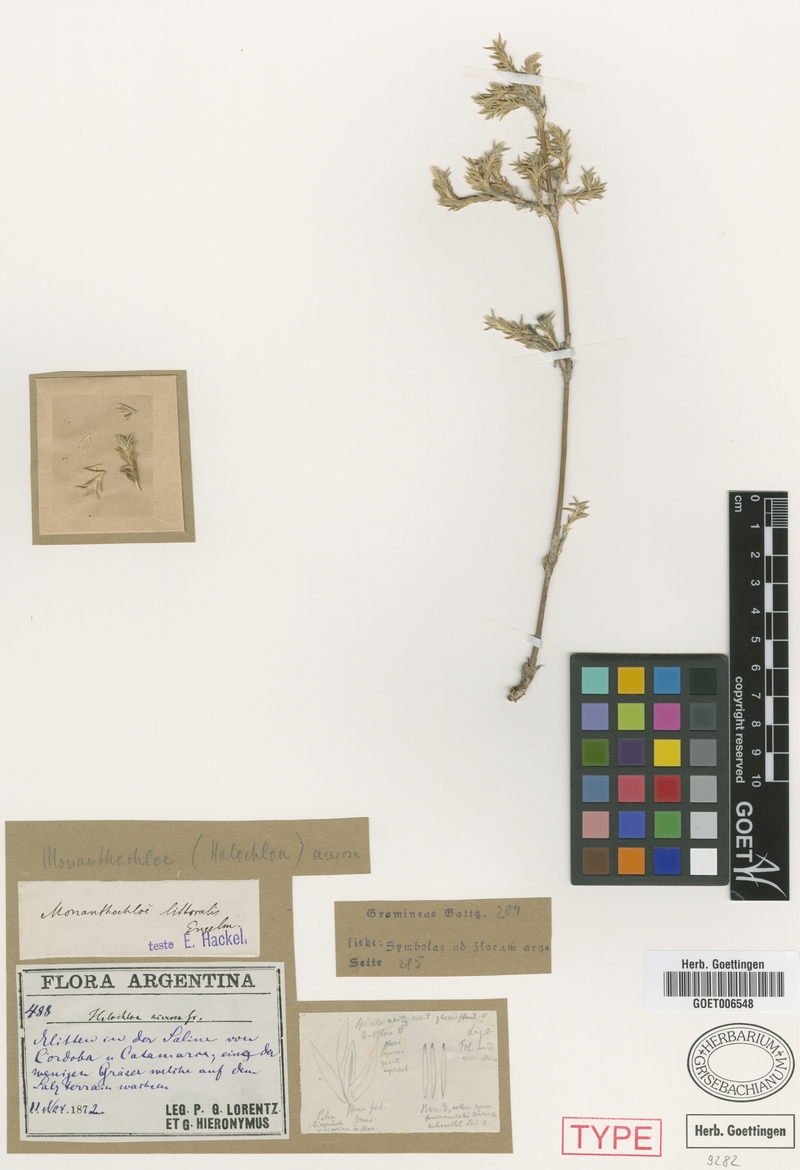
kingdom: Plantae
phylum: Tracheophyta
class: Liliopsida
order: Poales
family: Poaceae
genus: Distichlis
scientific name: Distichlis acerosa
